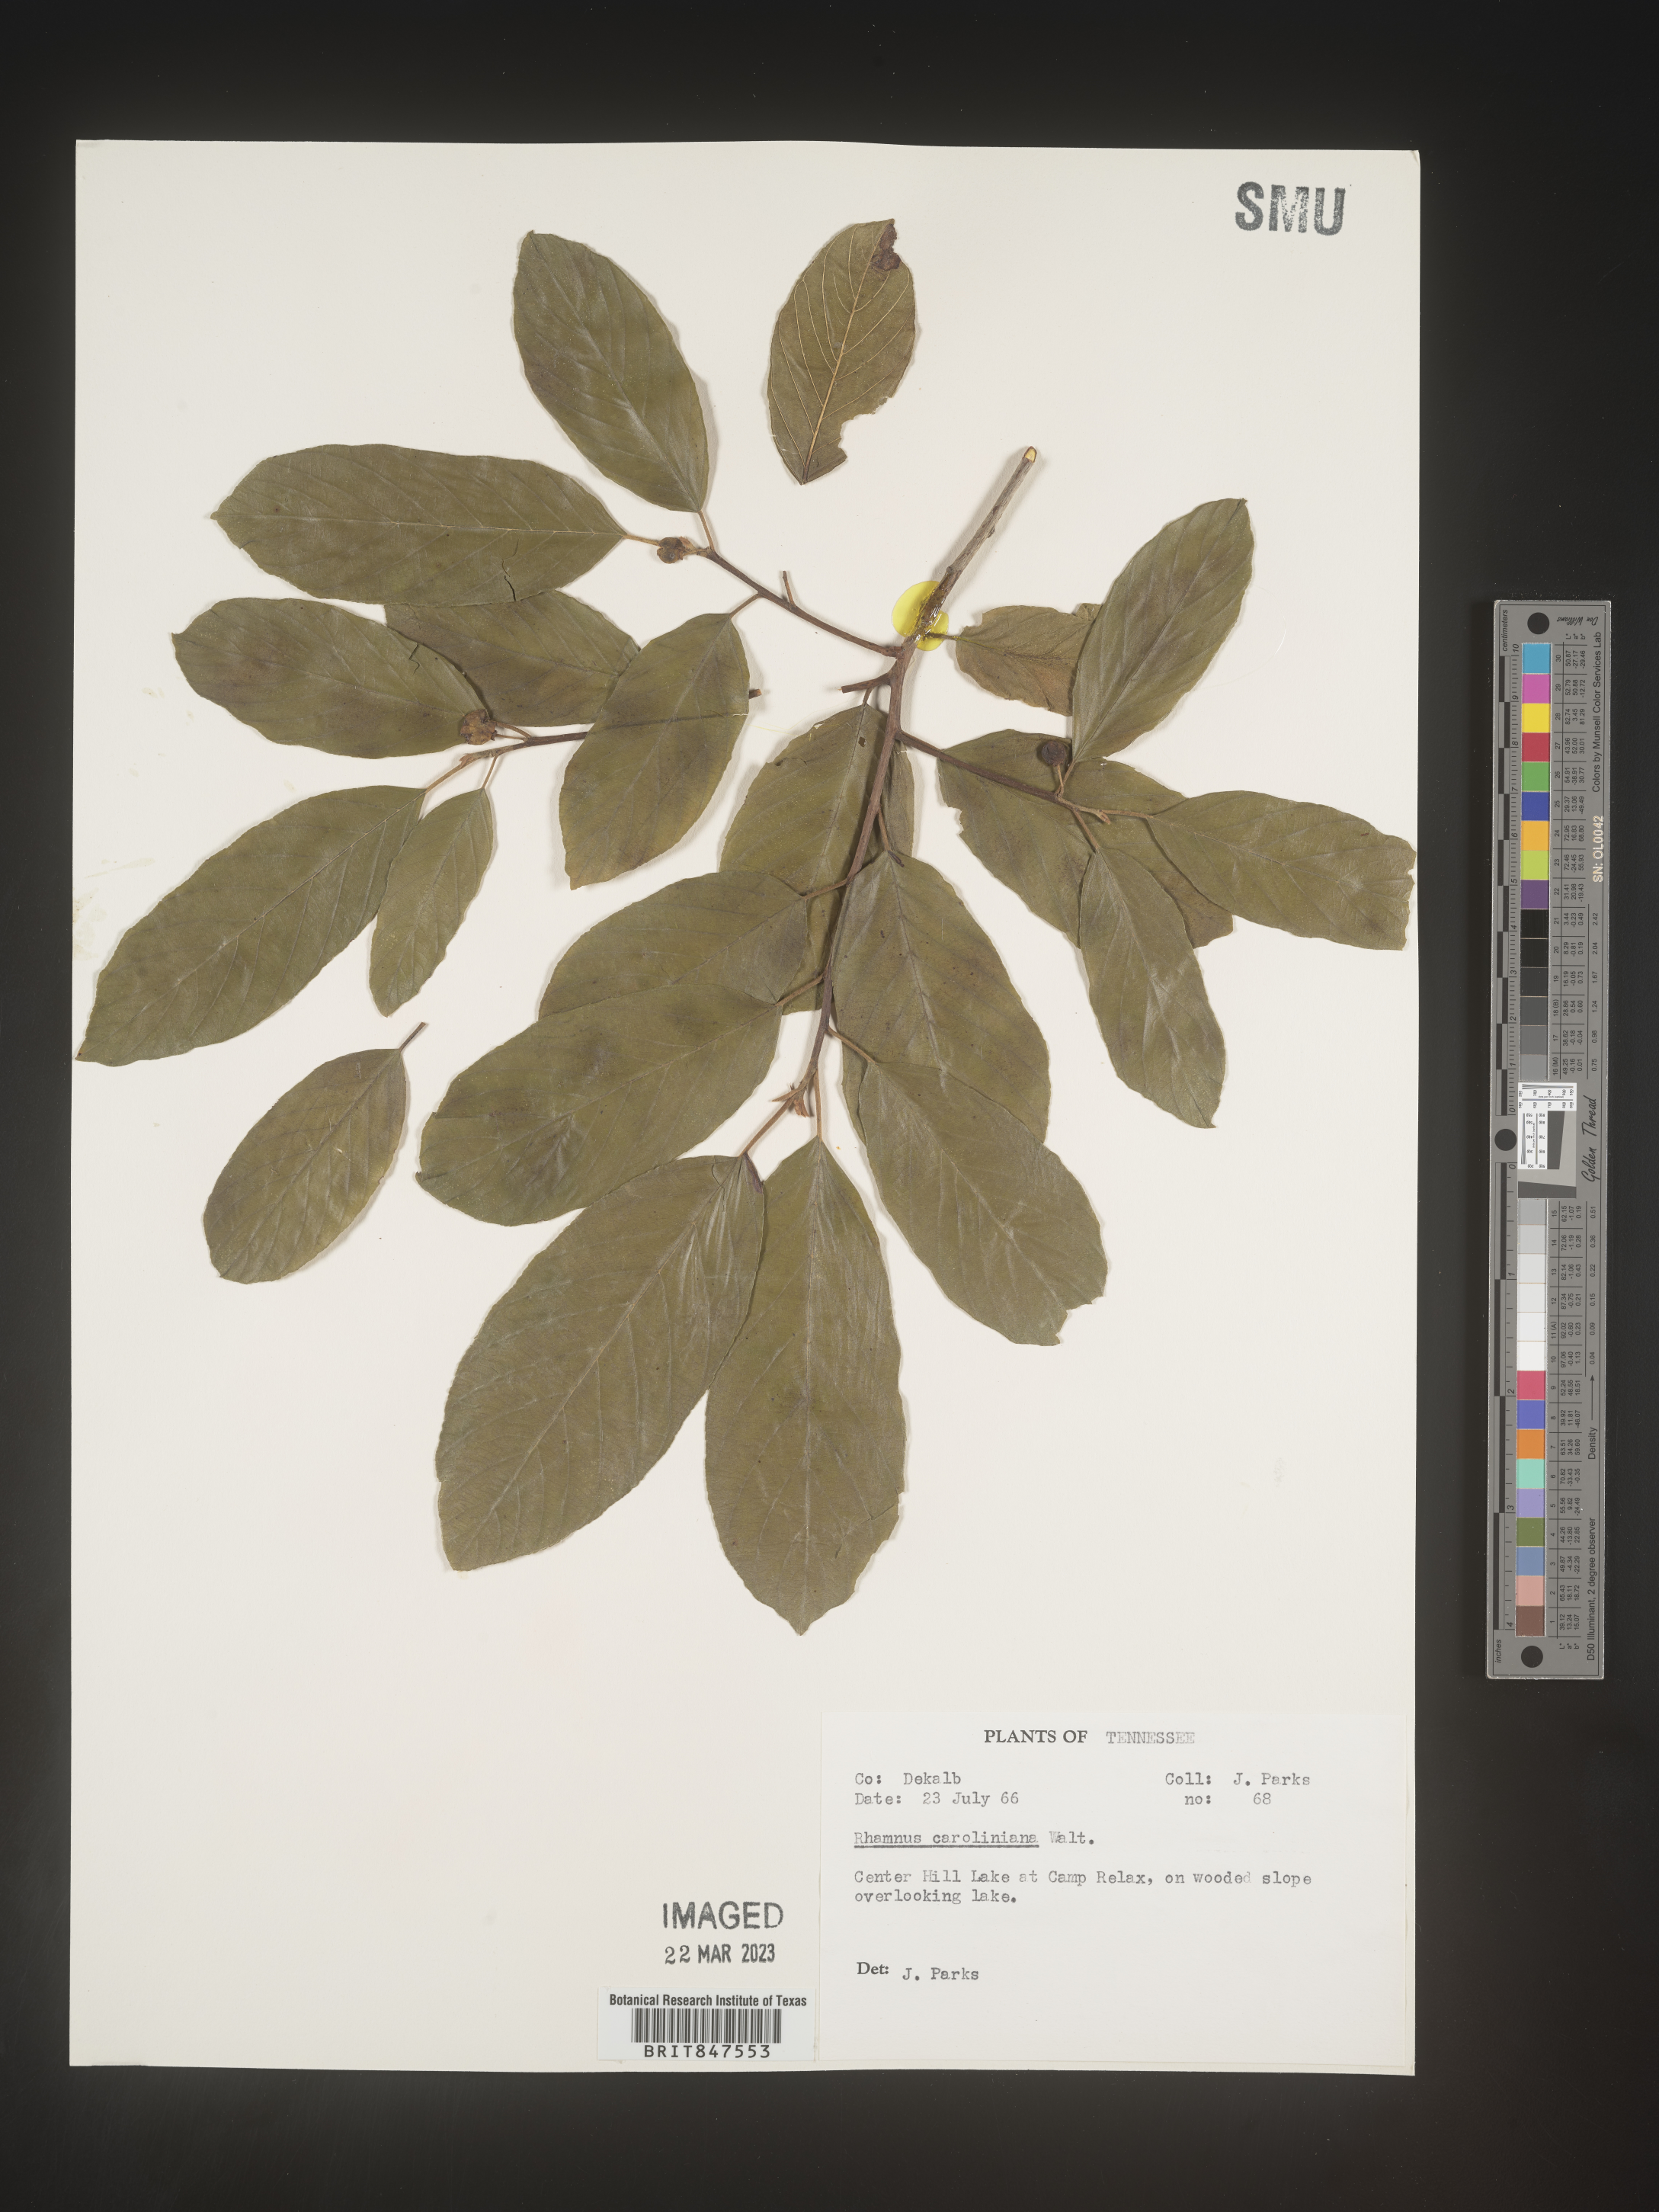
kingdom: Plantae
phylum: Tracheophyta
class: Magnoliopsida
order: Rosales
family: Rhamnaceae
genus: Frangula
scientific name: Frangula caroliniana
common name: Carolina buckthorn
